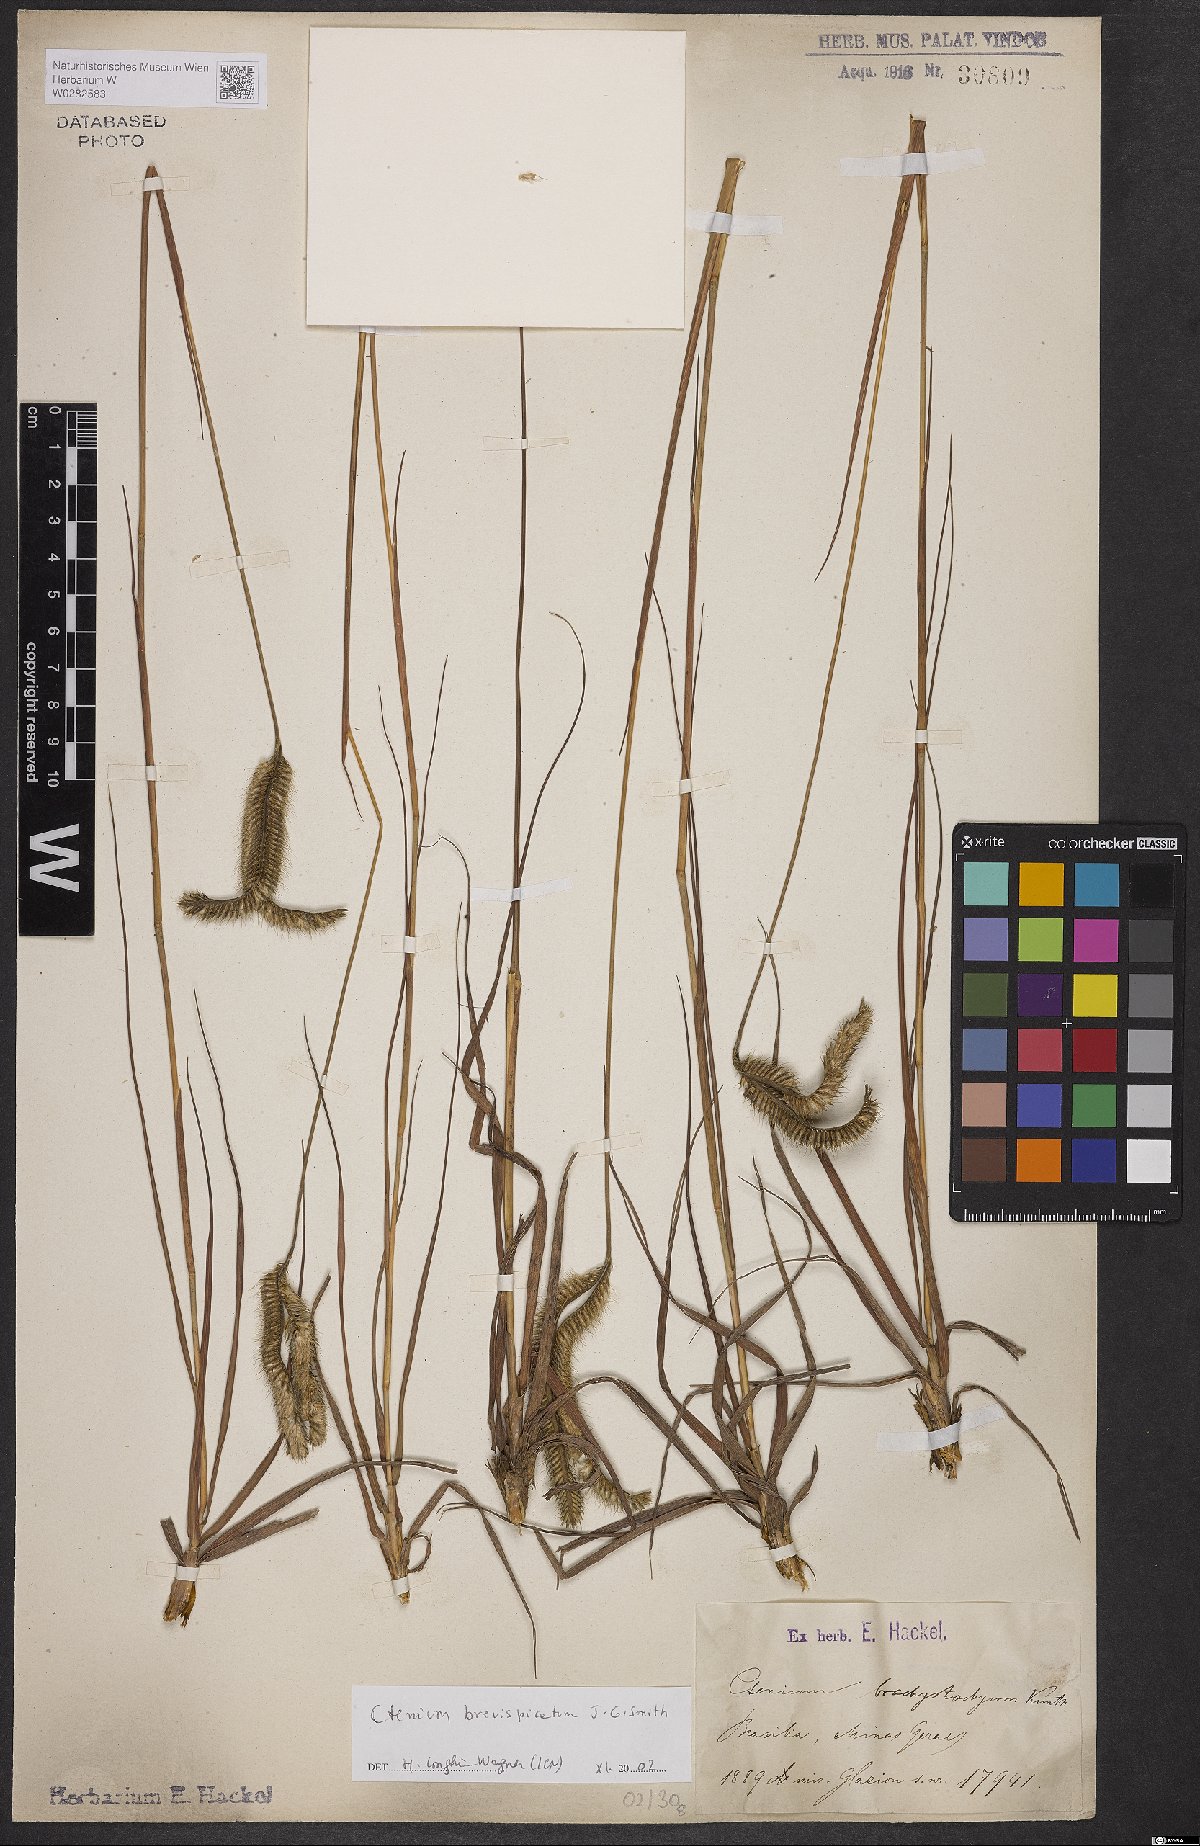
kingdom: Plantae
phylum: Tracheophyta
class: Liliopsida
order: Poales
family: Poaceae
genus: Ctenium
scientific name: Ctenium brevispicatum
